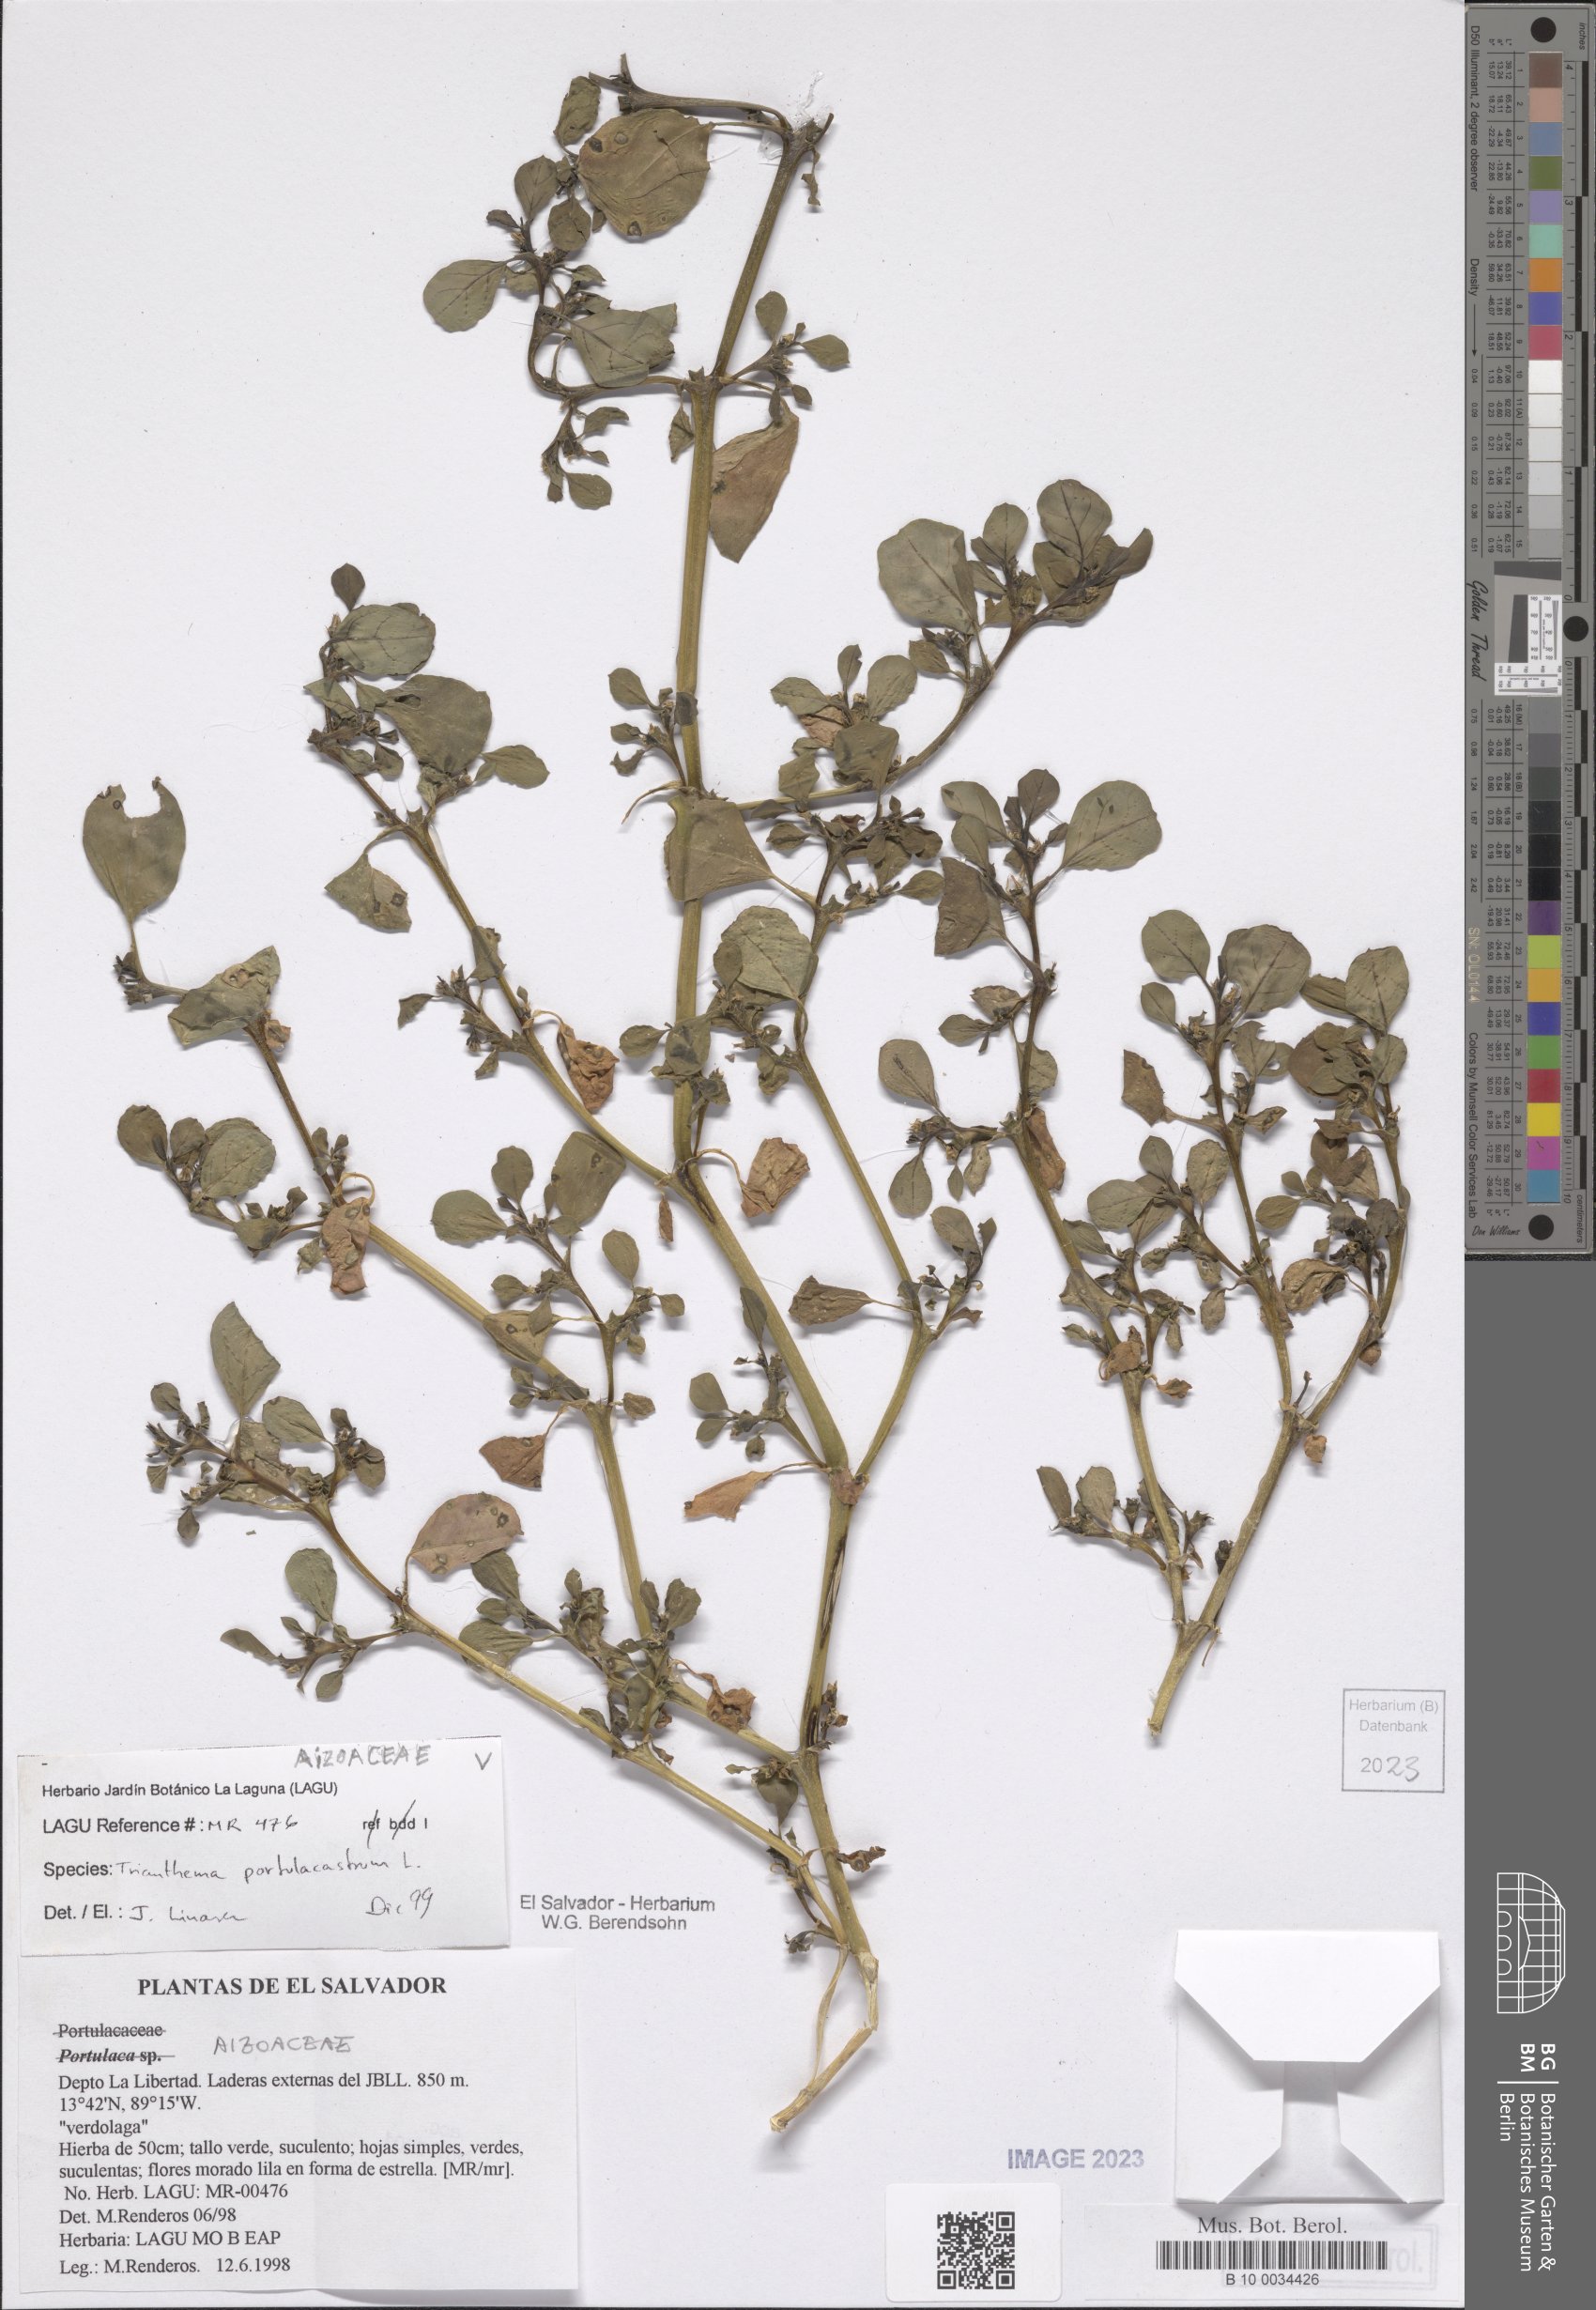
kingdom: Plantae
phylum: Tracheophyta
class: Magnoliopsida
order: Caryophyllales
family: Aizoaceae
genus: Trianthema
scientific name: Trianthema portulacastrum
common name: Desert horsepurslane
